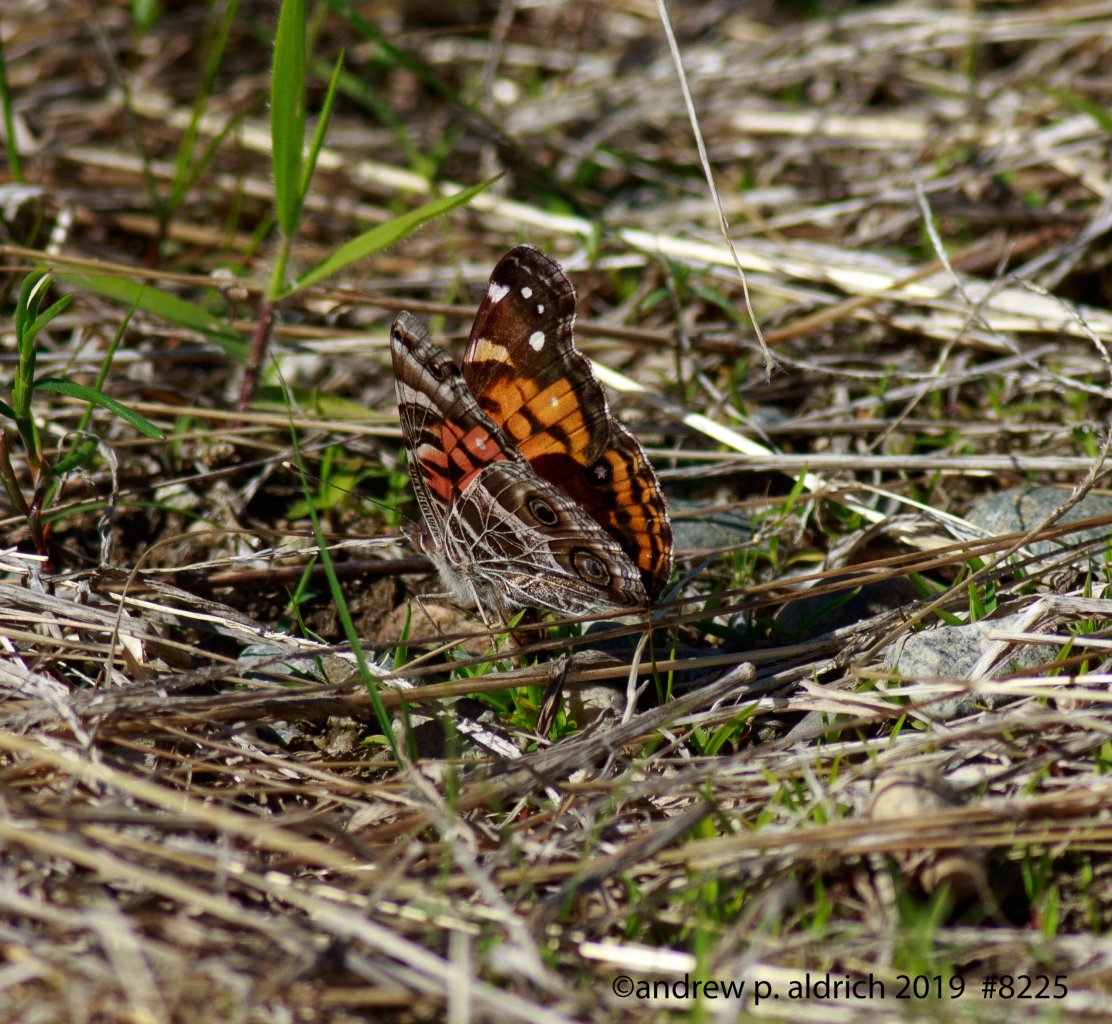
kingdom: Animalia
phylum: Arthropoda
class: Insecta
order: Lepidoptera
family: Nymphalidae
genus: Vanessa
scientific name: Vanessa virginiensis
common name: American Lady
